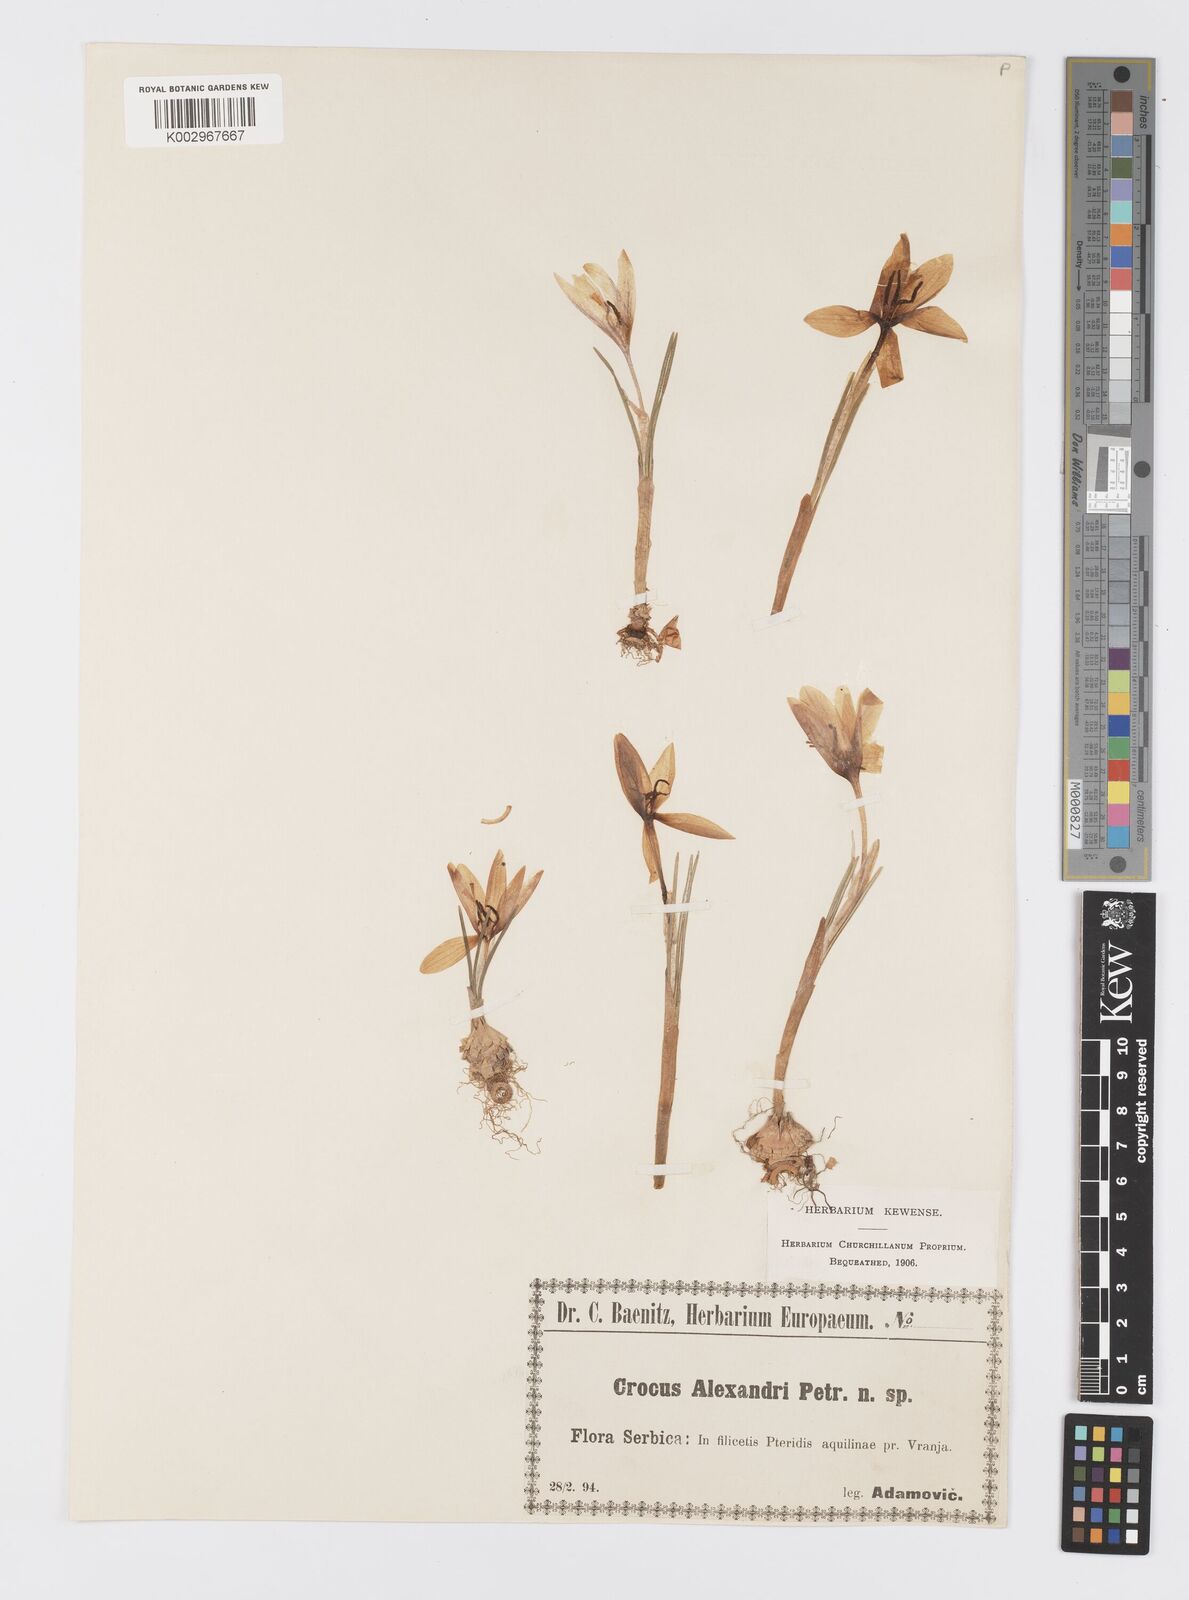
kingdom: Plantae
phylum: Tracheophyta
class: Liliopsida
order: Asparagales
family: Iridaceae
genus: Crocus
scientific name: Crocus alexandri
